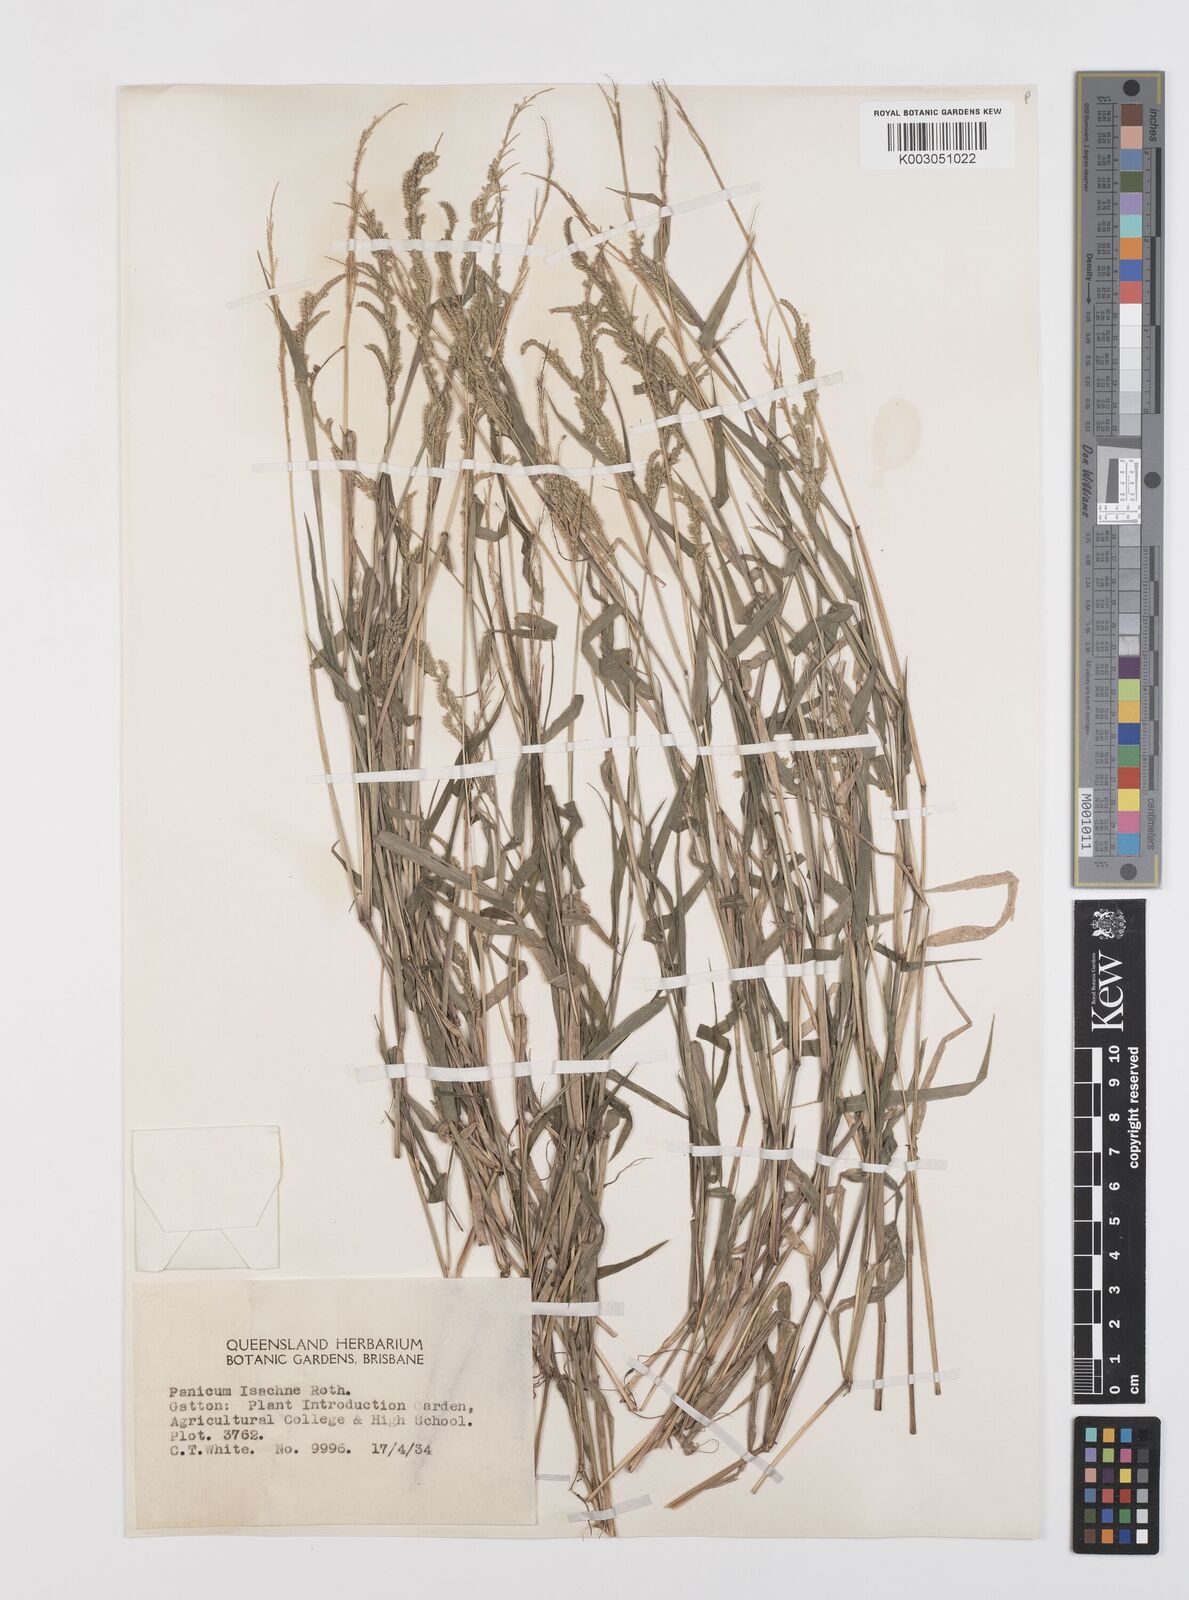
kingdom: Plantae
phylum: Tracheophyta
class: Liliopsida
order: Poales
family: Poaceae
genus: Moorochloa
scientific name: Moorochloa eruciformis
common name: Sweet signalgrass
